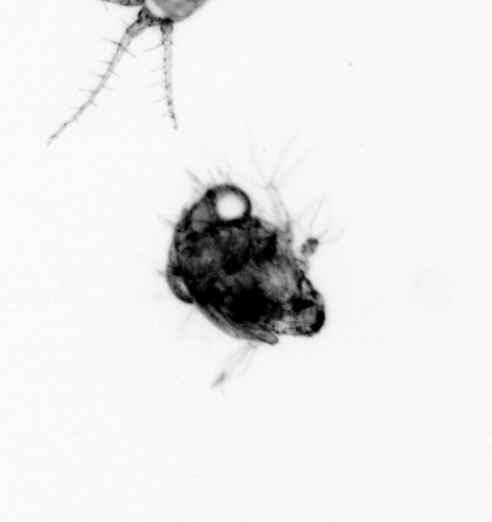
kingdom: Animalia
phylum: Arthropoda
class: Malacostraca
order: Decapoda
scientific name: Decapoda
